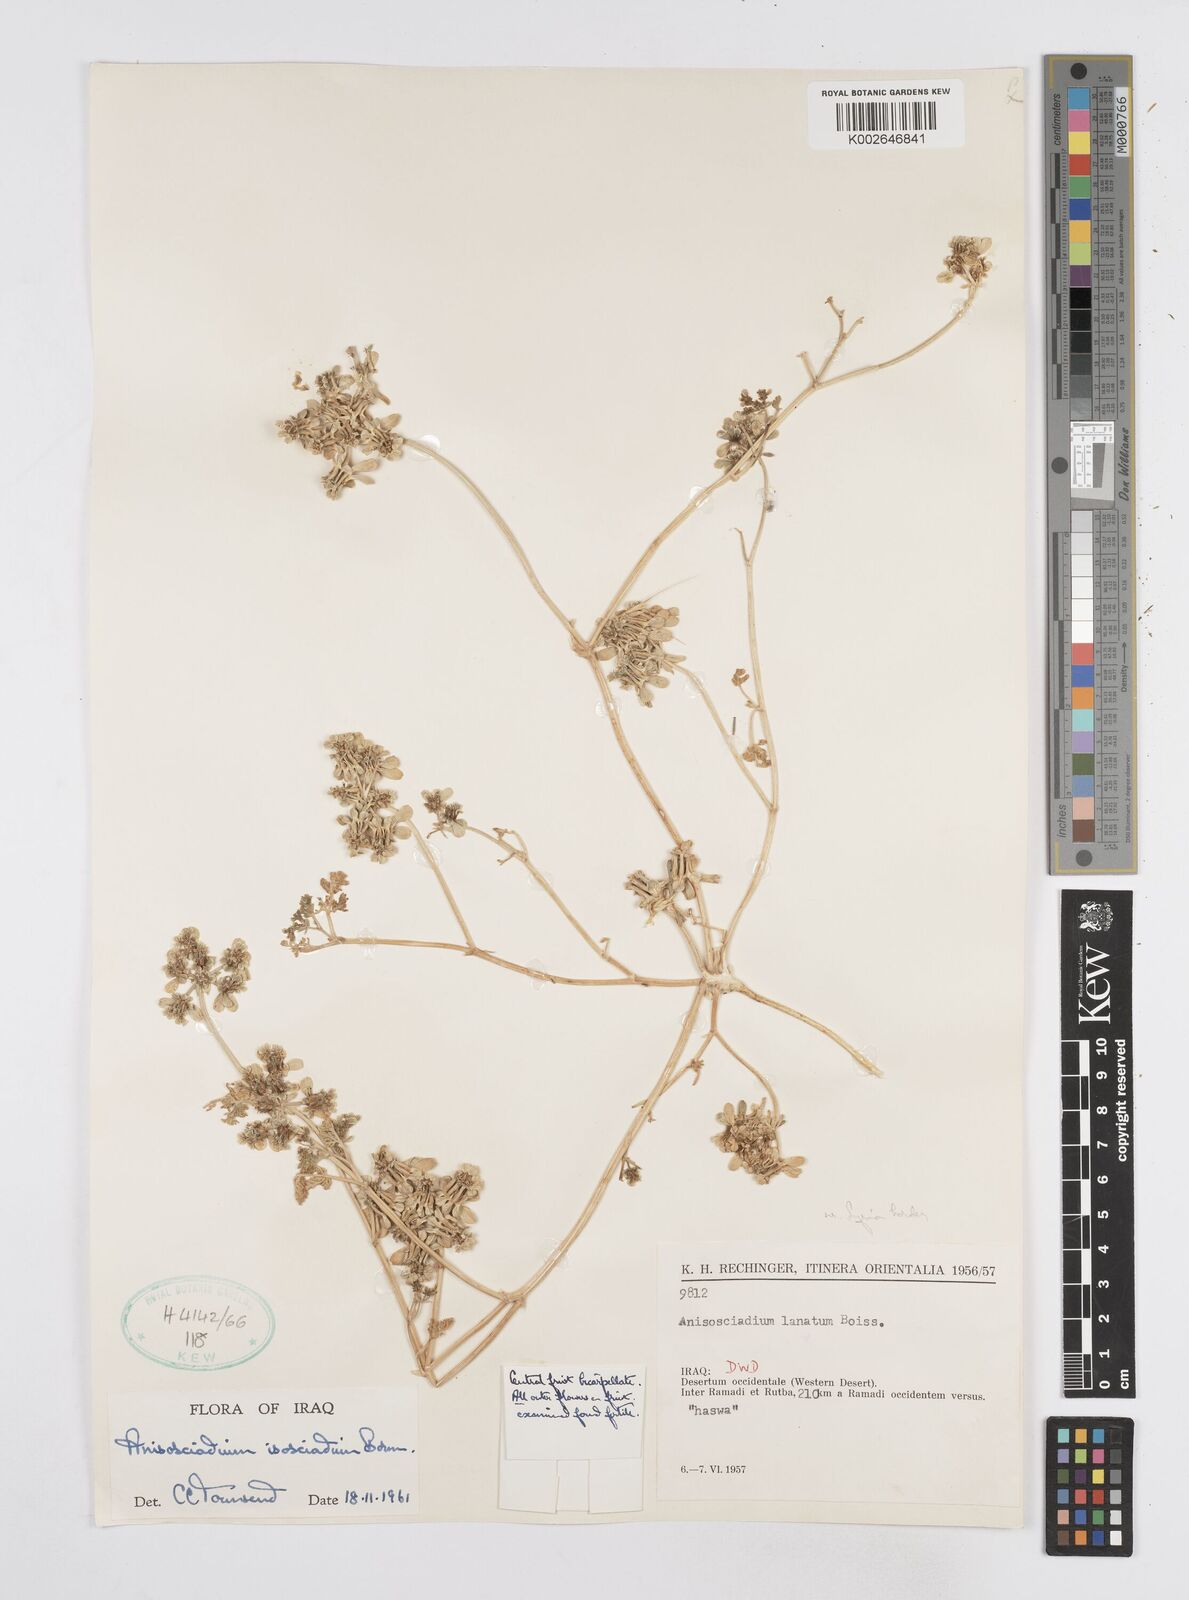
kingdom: Plantae
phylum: Tracheophyta
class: Magnoliopsida
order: Apiales
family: Apiaceae
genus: Anisosciadium
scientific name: Anisosciadium isosciadium
